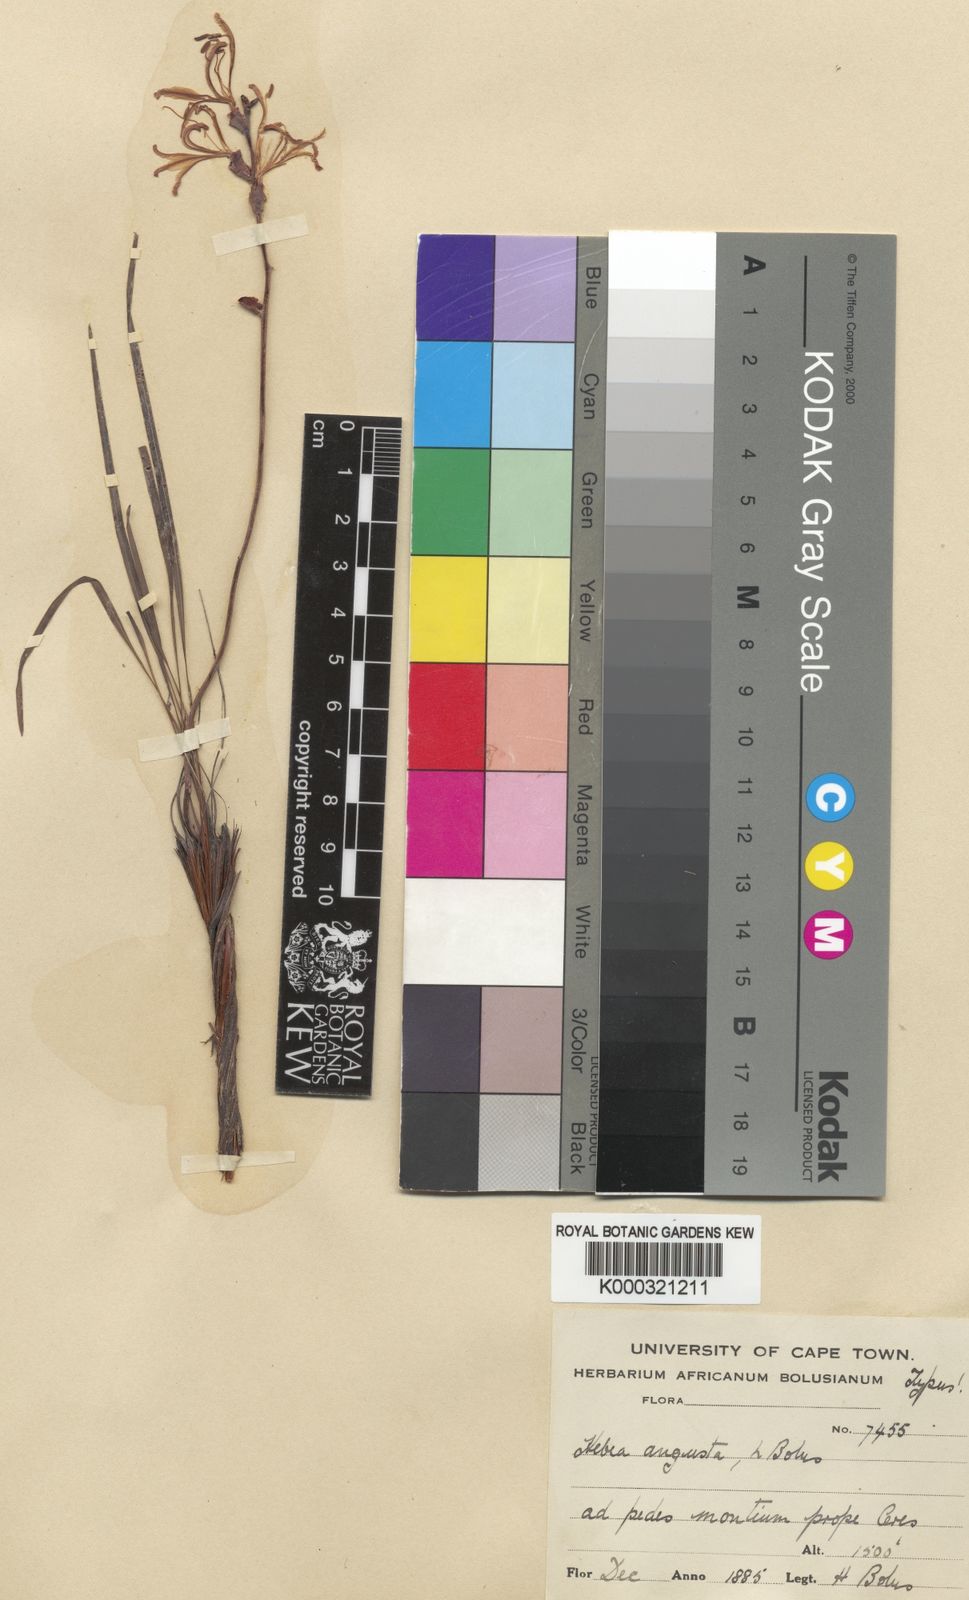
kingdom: Plantae
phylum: Tracheophyta
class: Liliopsida
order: Asparagales
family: Iridaceae
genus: Tritoniopsis
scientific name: Tritoniopsis parviflora
